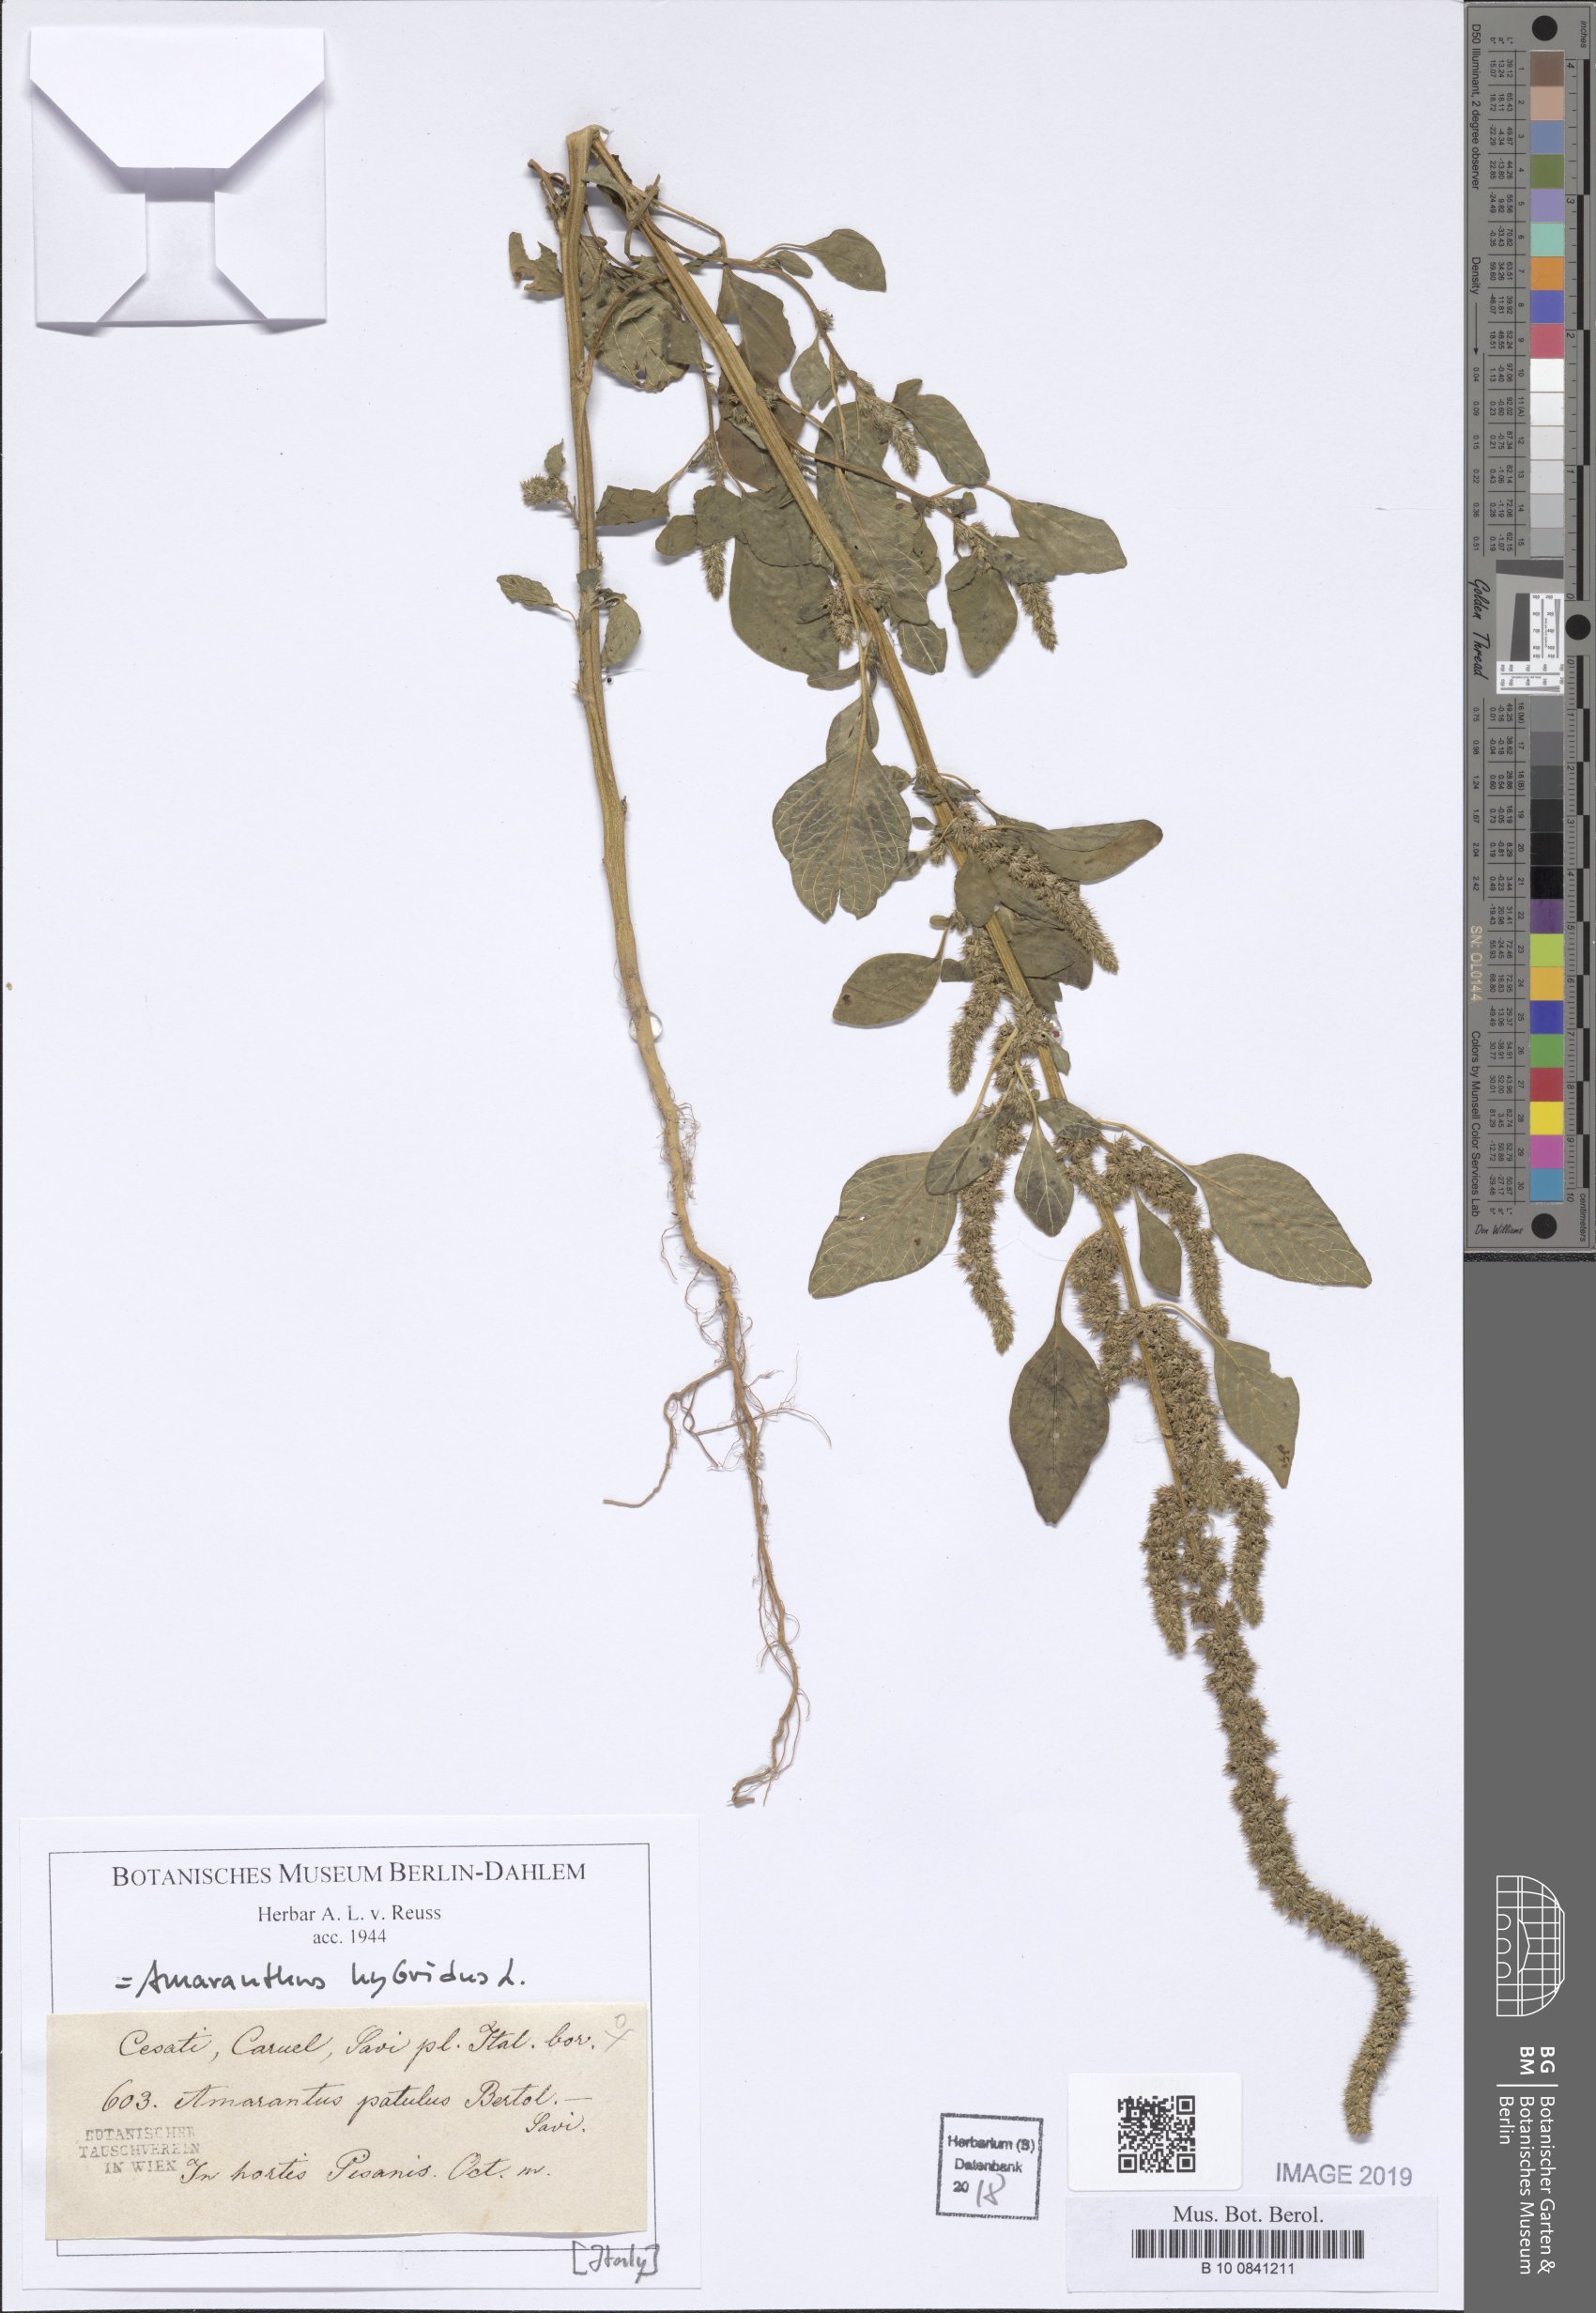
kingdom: Plantae
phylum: Tracheophyta
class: Magnoliopsida
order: Caryophyllales
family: Amaranthaceae
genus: Amaranthus
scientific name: Amaranthus hybridus
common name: Green amaranth
